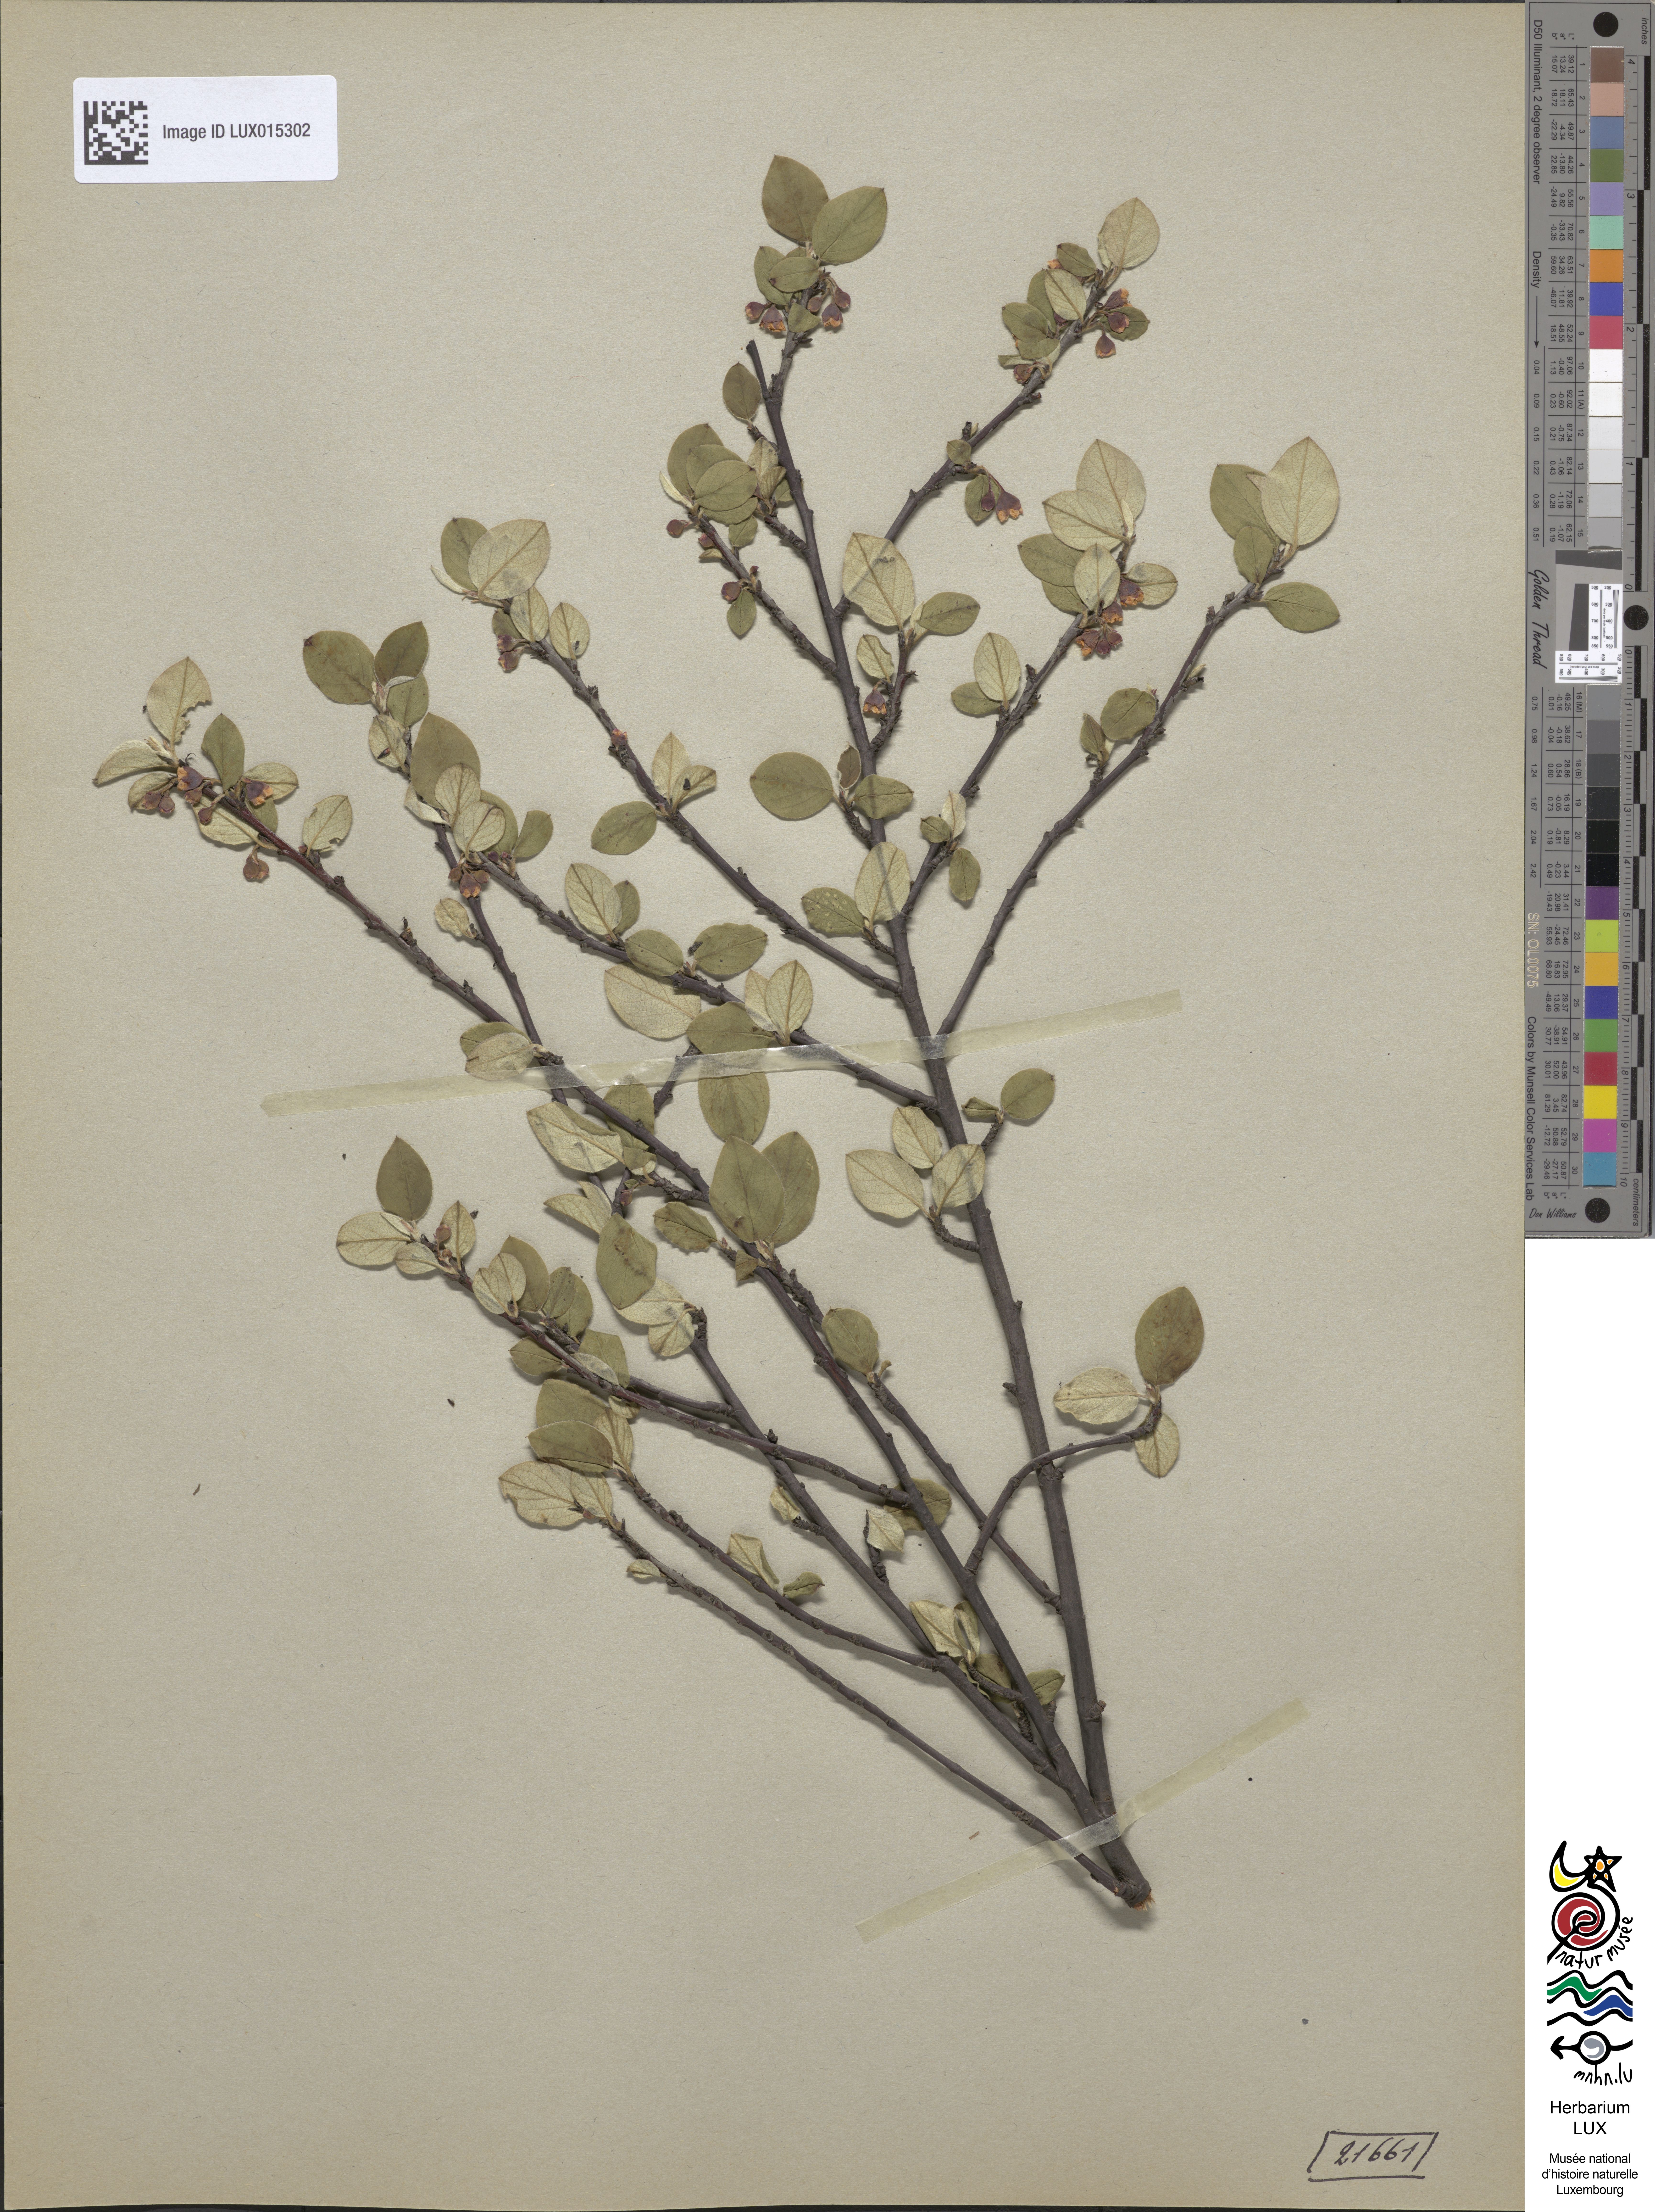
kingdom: Plantae
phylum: Tracheophyta
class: Magnoliopsida
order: Rosales
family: Rosaceae
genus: Cotoneaster
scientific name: Cotoneaster integerrimus
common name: Wild cotoneaster
